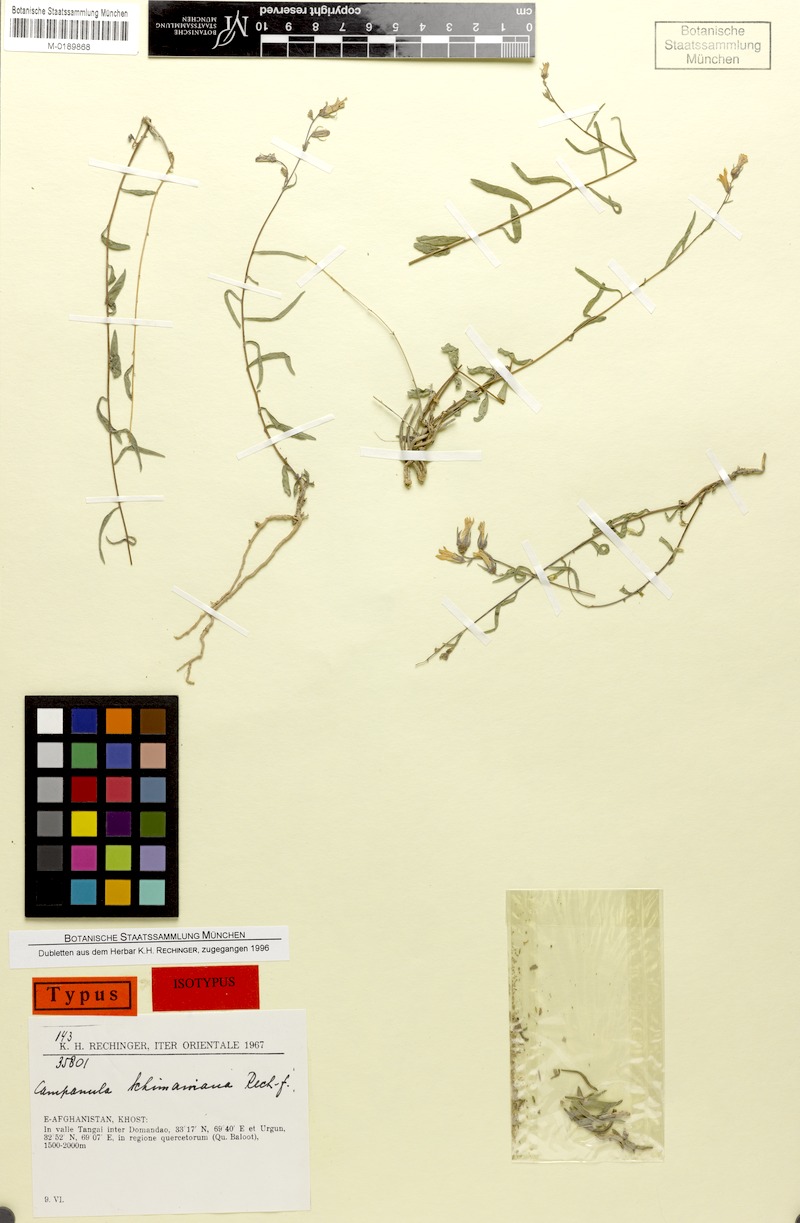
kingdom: Plantae
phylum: Tracheophyta
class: Magnoliopsida
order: Asterales
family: Campanulaceae
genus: Campanula
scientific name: Campanula schimaniana
